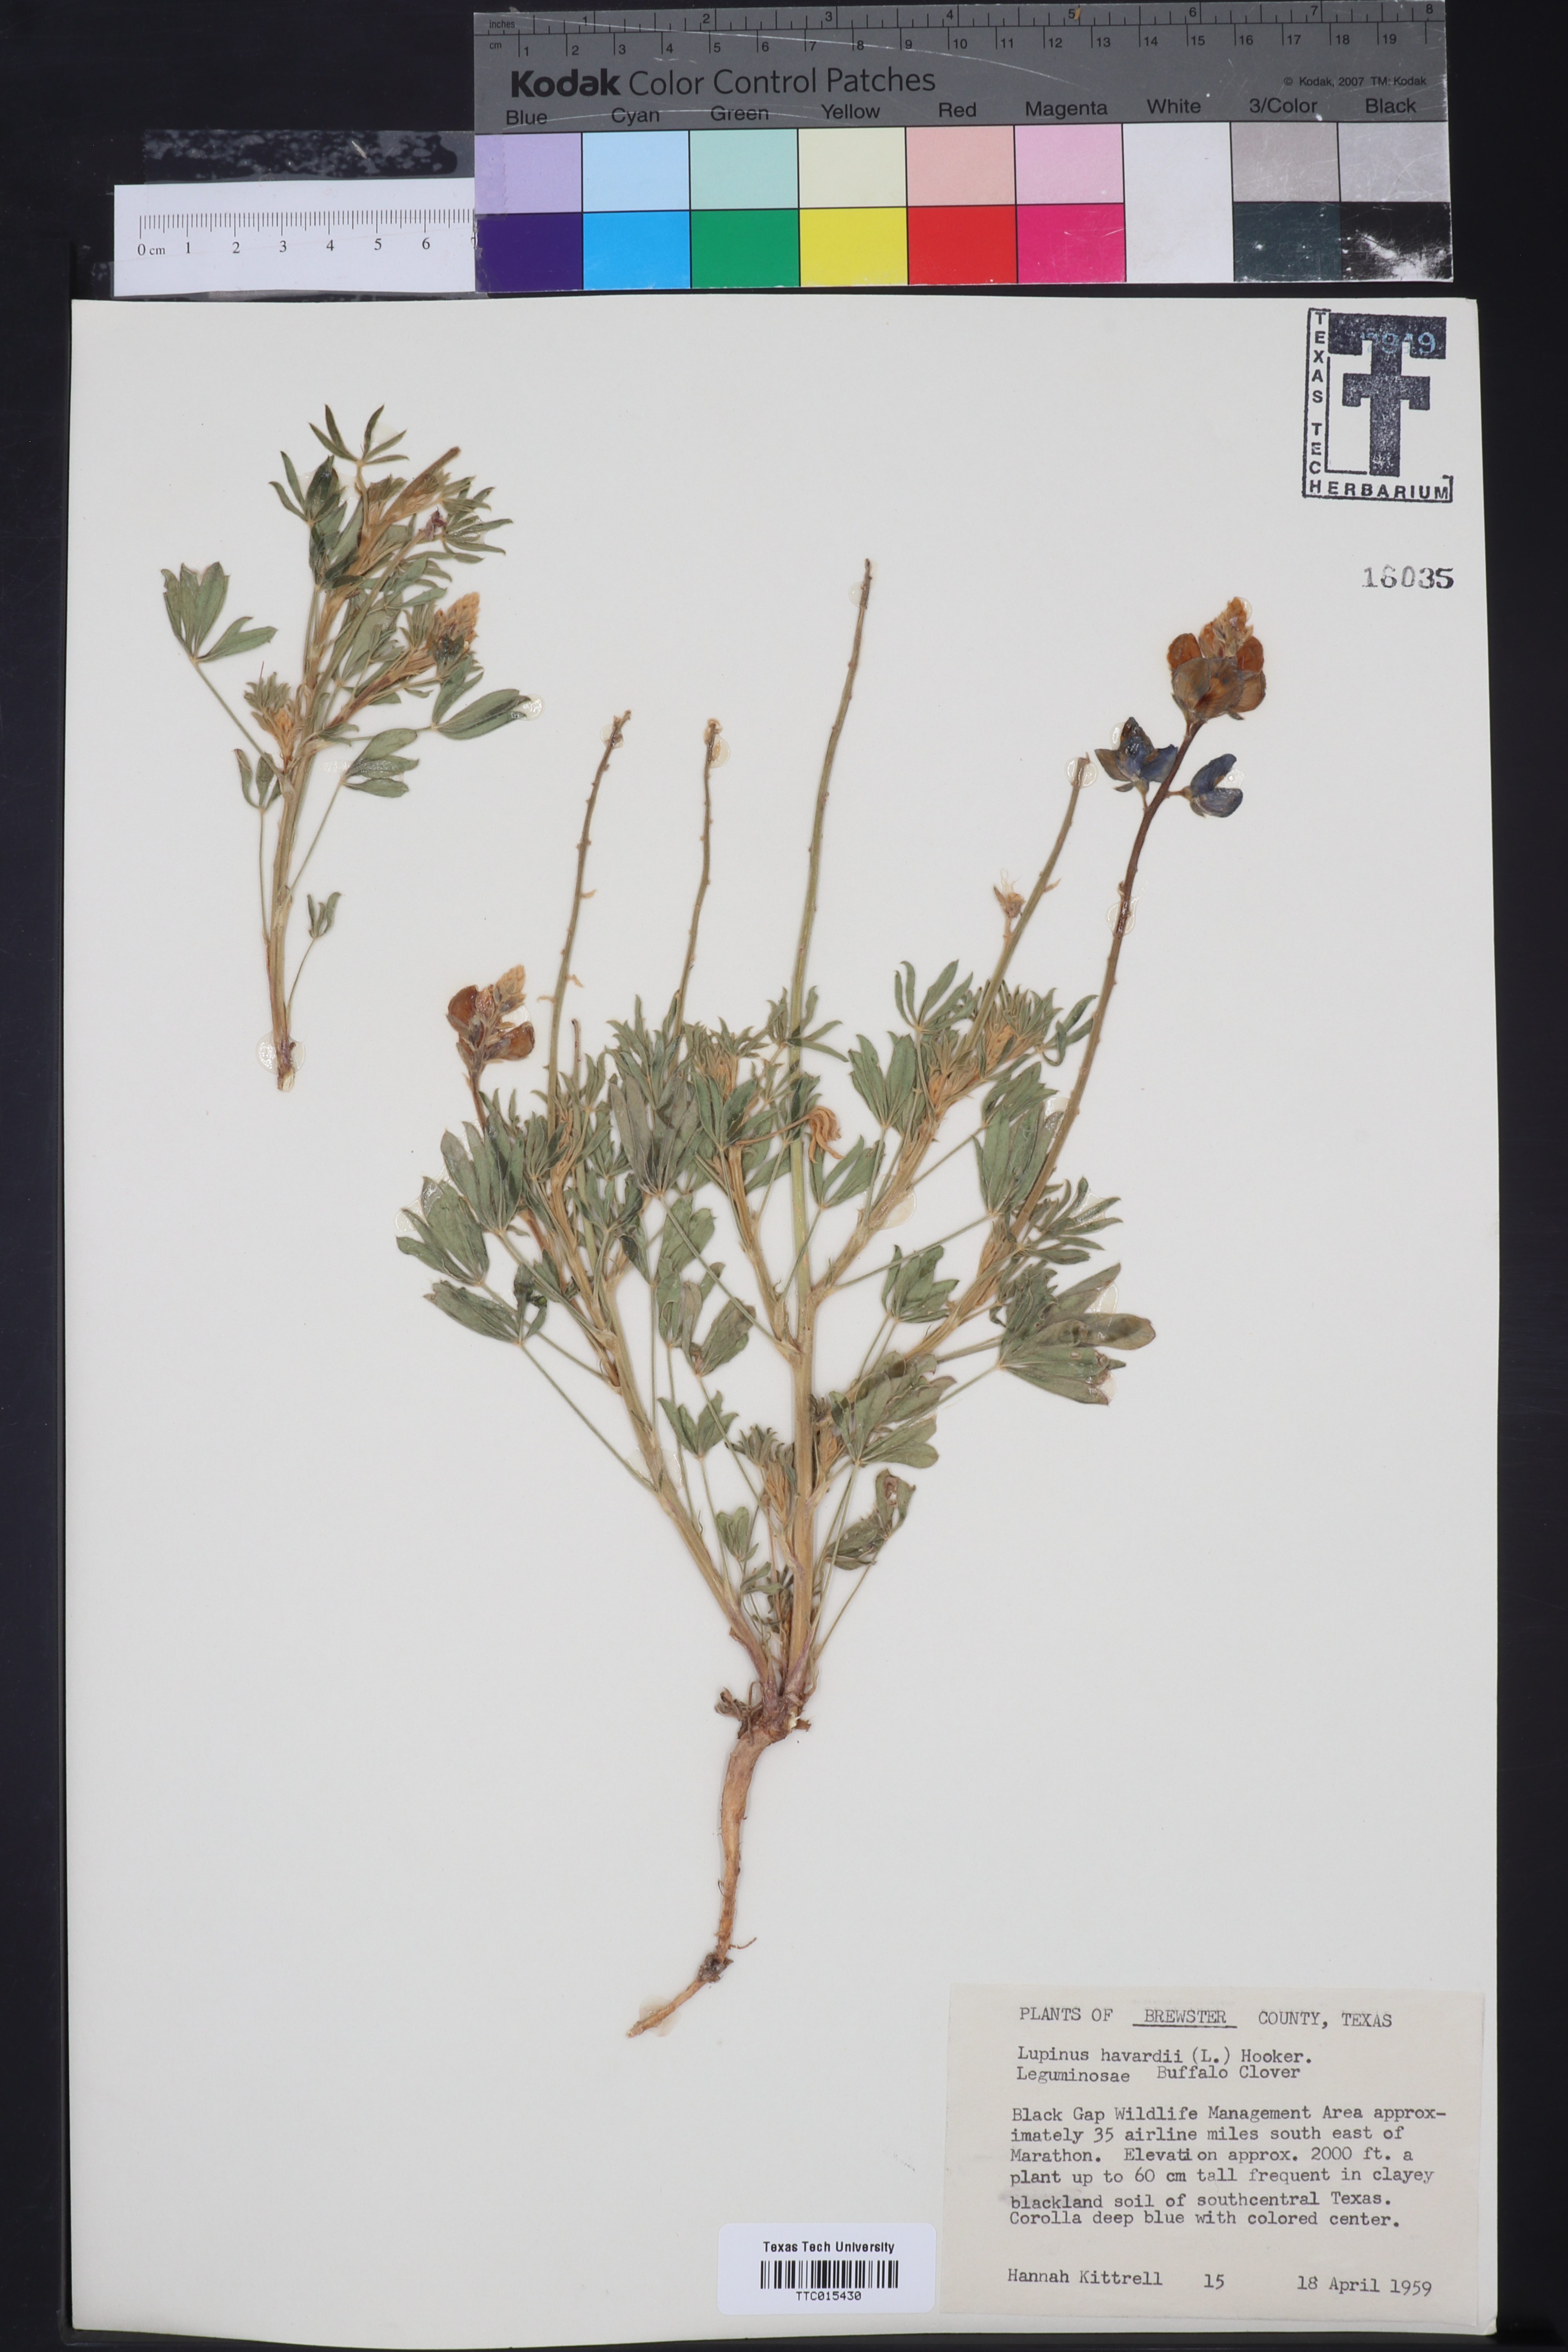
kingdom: Plantae
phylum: Tracheophyta
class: Magnoliopsida
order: Fabales
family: Fabaceae
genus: Lupinus
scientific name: Lupinus havardii
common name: Chisos bluebonnet
